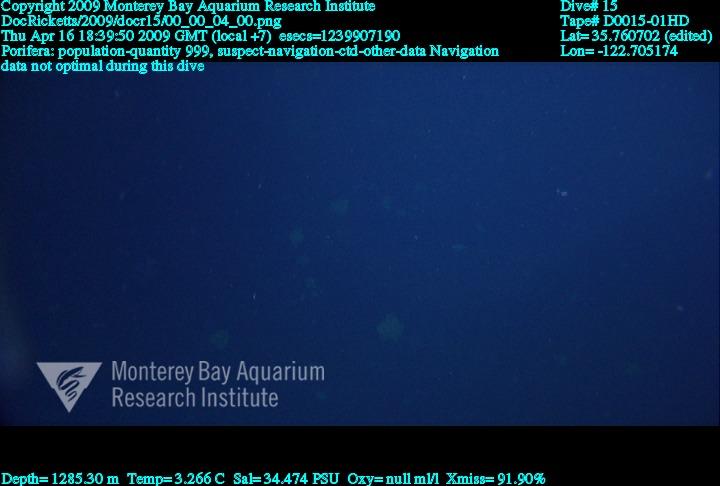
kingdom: Animalia
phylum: Porifera
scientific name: Porifera
